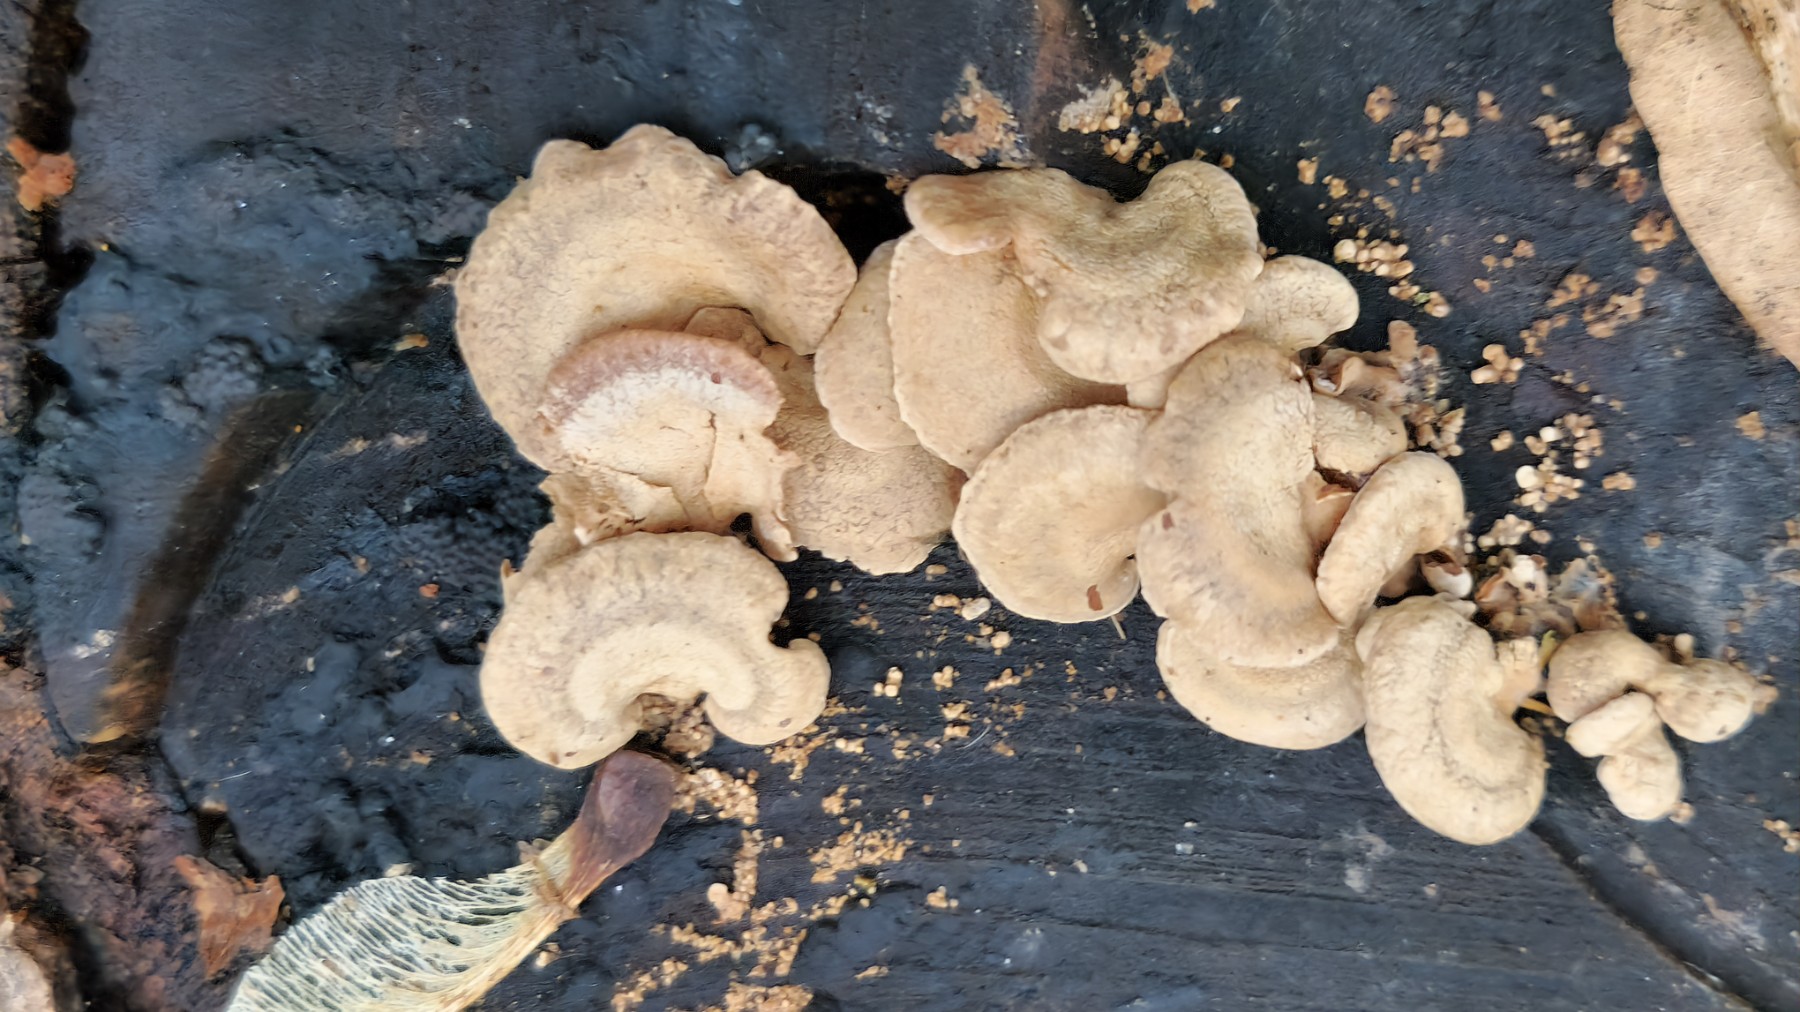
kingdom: Fungi
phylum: Basidiomycota
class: Agaricomycetes
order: Agaricales
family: Mycenaceae
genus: Panellus
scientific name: Panellus stipticus
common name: kliddet epaulethat
